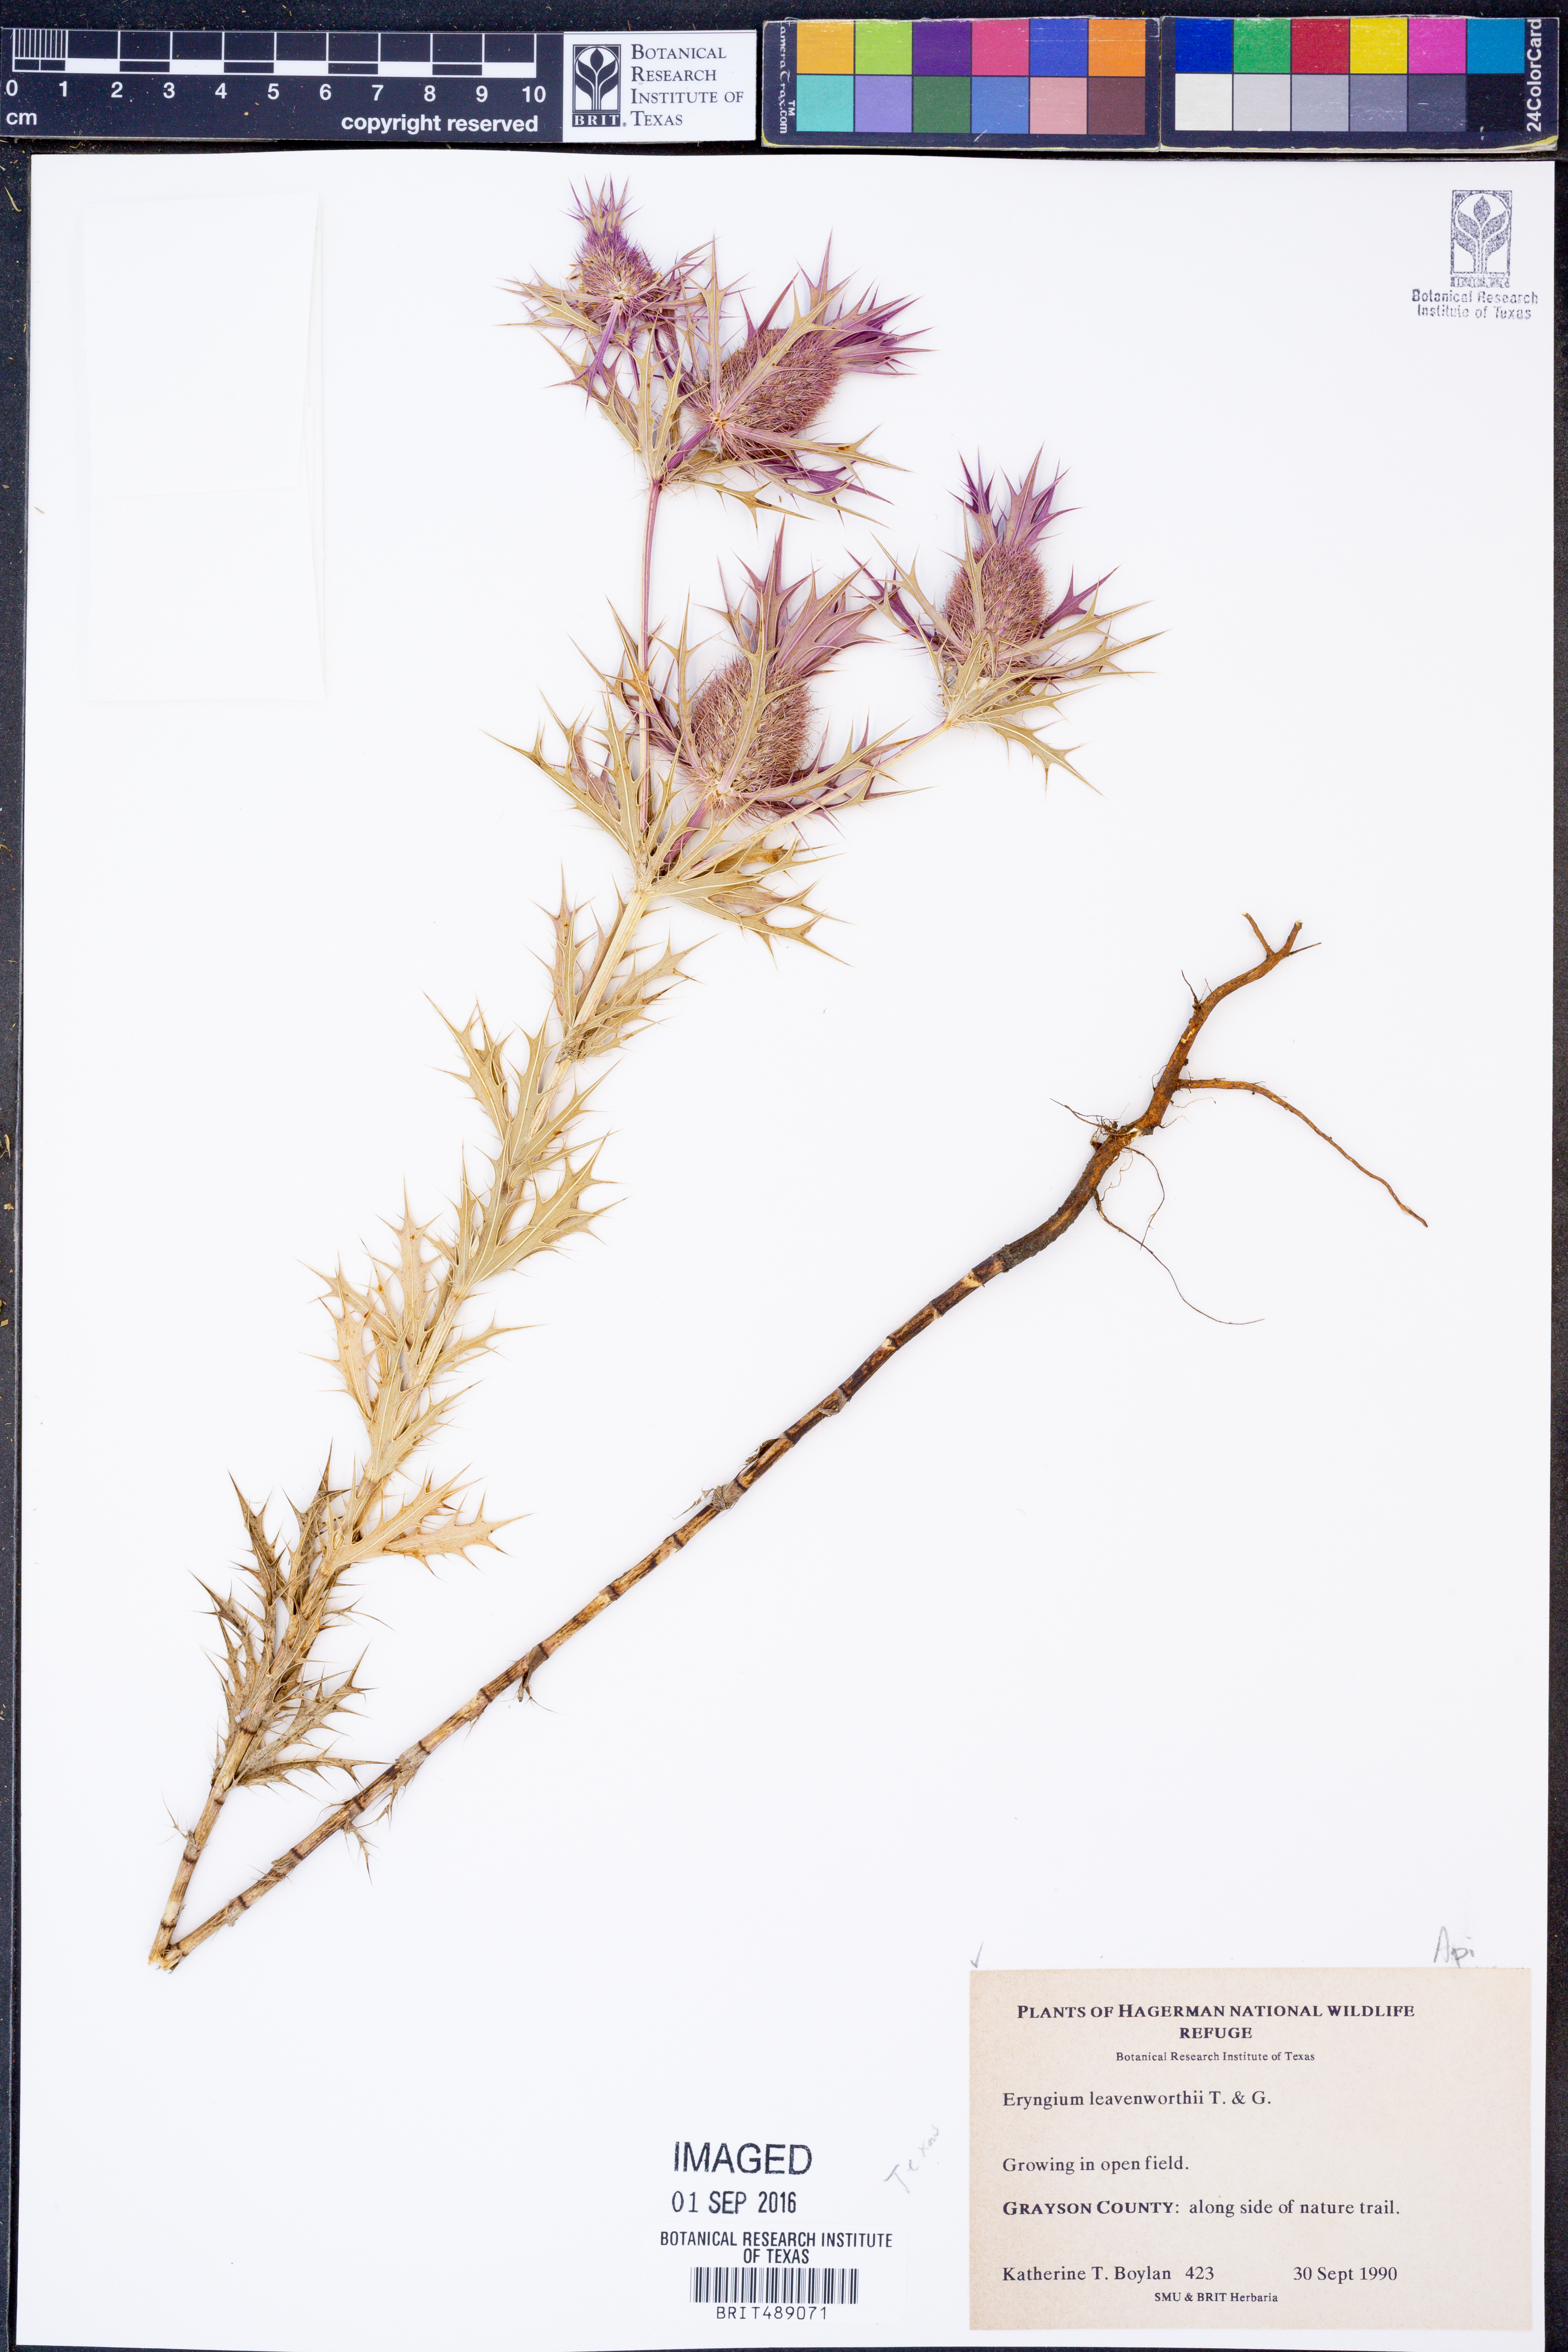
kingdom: Plantae
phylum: Tracheophyta
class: Magnoliopsida
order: Apiales
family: Apiaceae
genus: Eryngium
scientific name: Eryngium leavenworthii
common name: Leavenworth's eryngo
